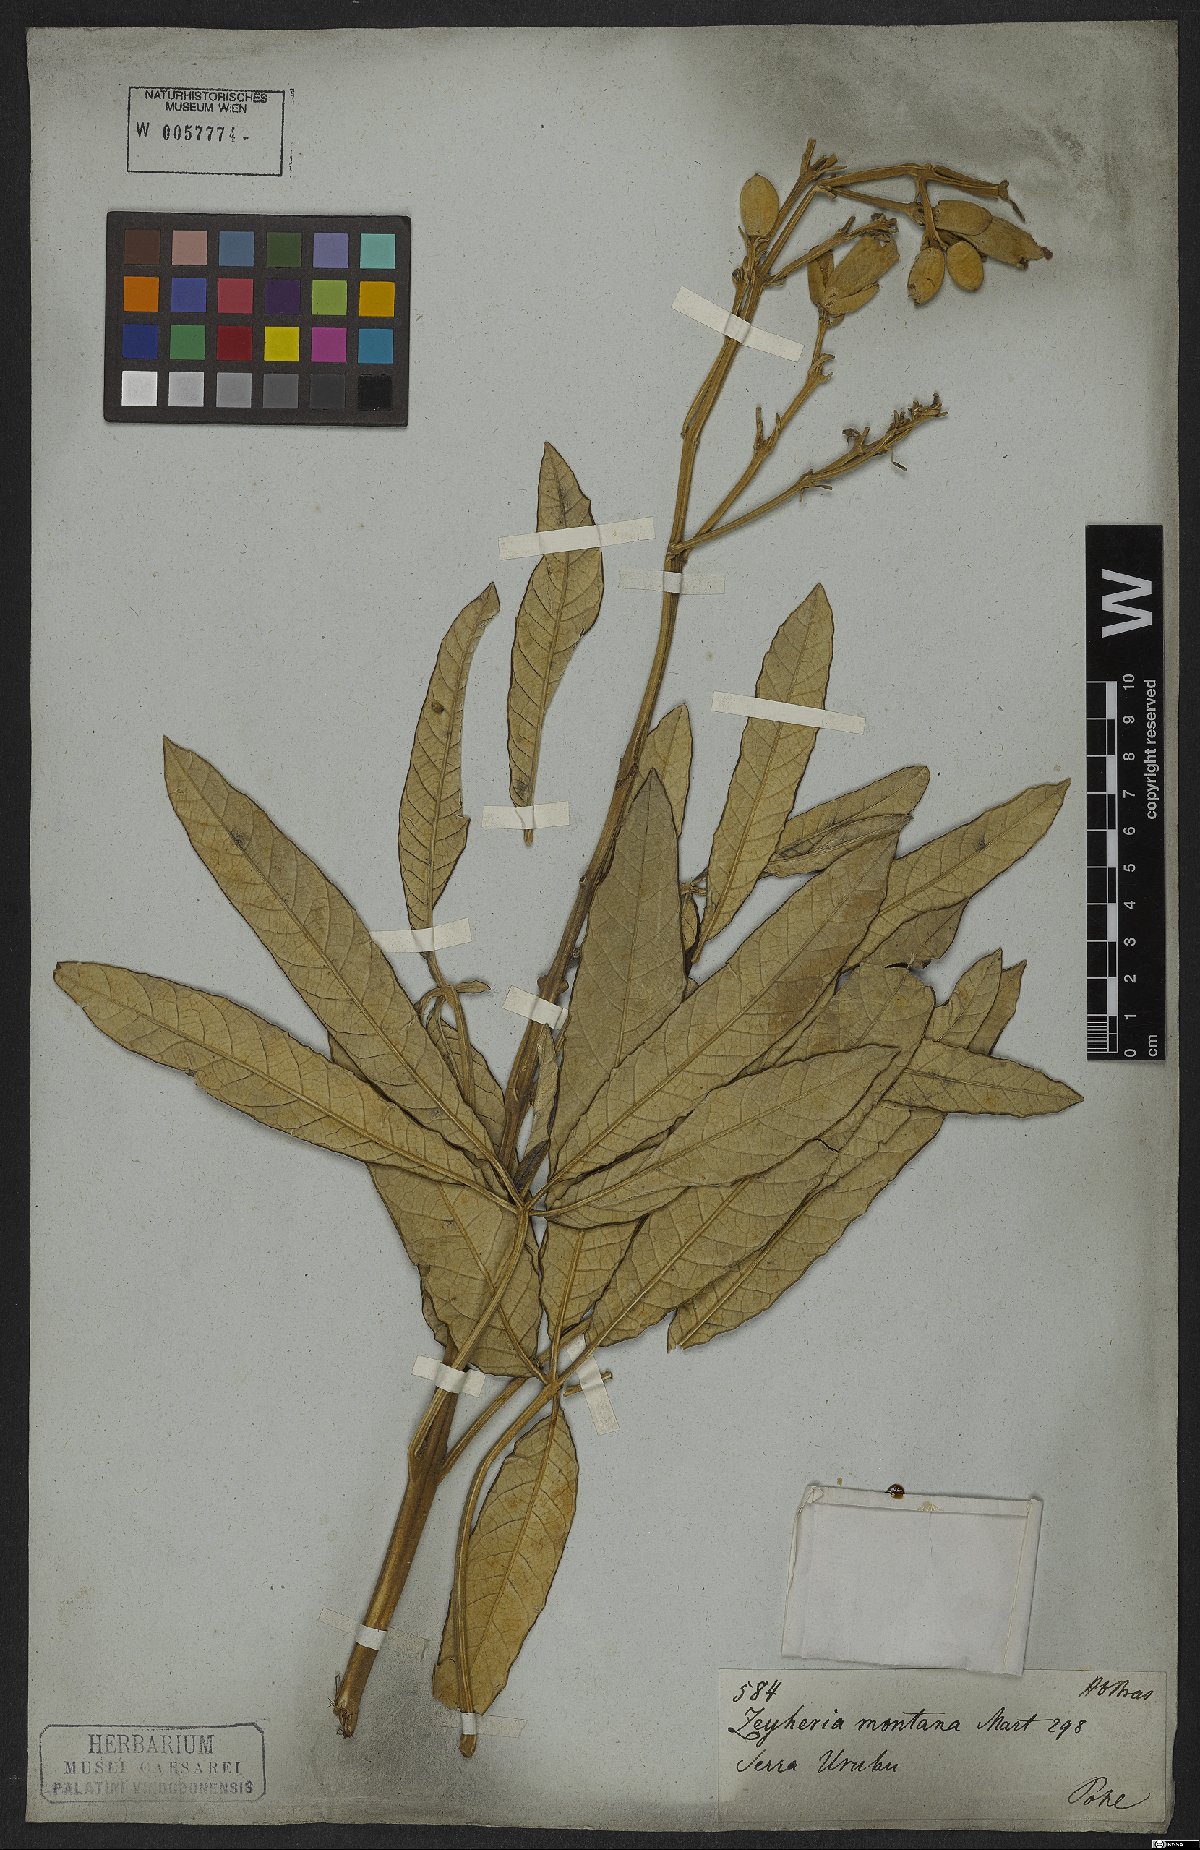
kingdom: Plantae
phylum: Tracheophyta
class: Magnoliopsida
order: Lamiales
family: Bignoniaceae
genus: Zeyheria
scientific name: Zeyheria montana
